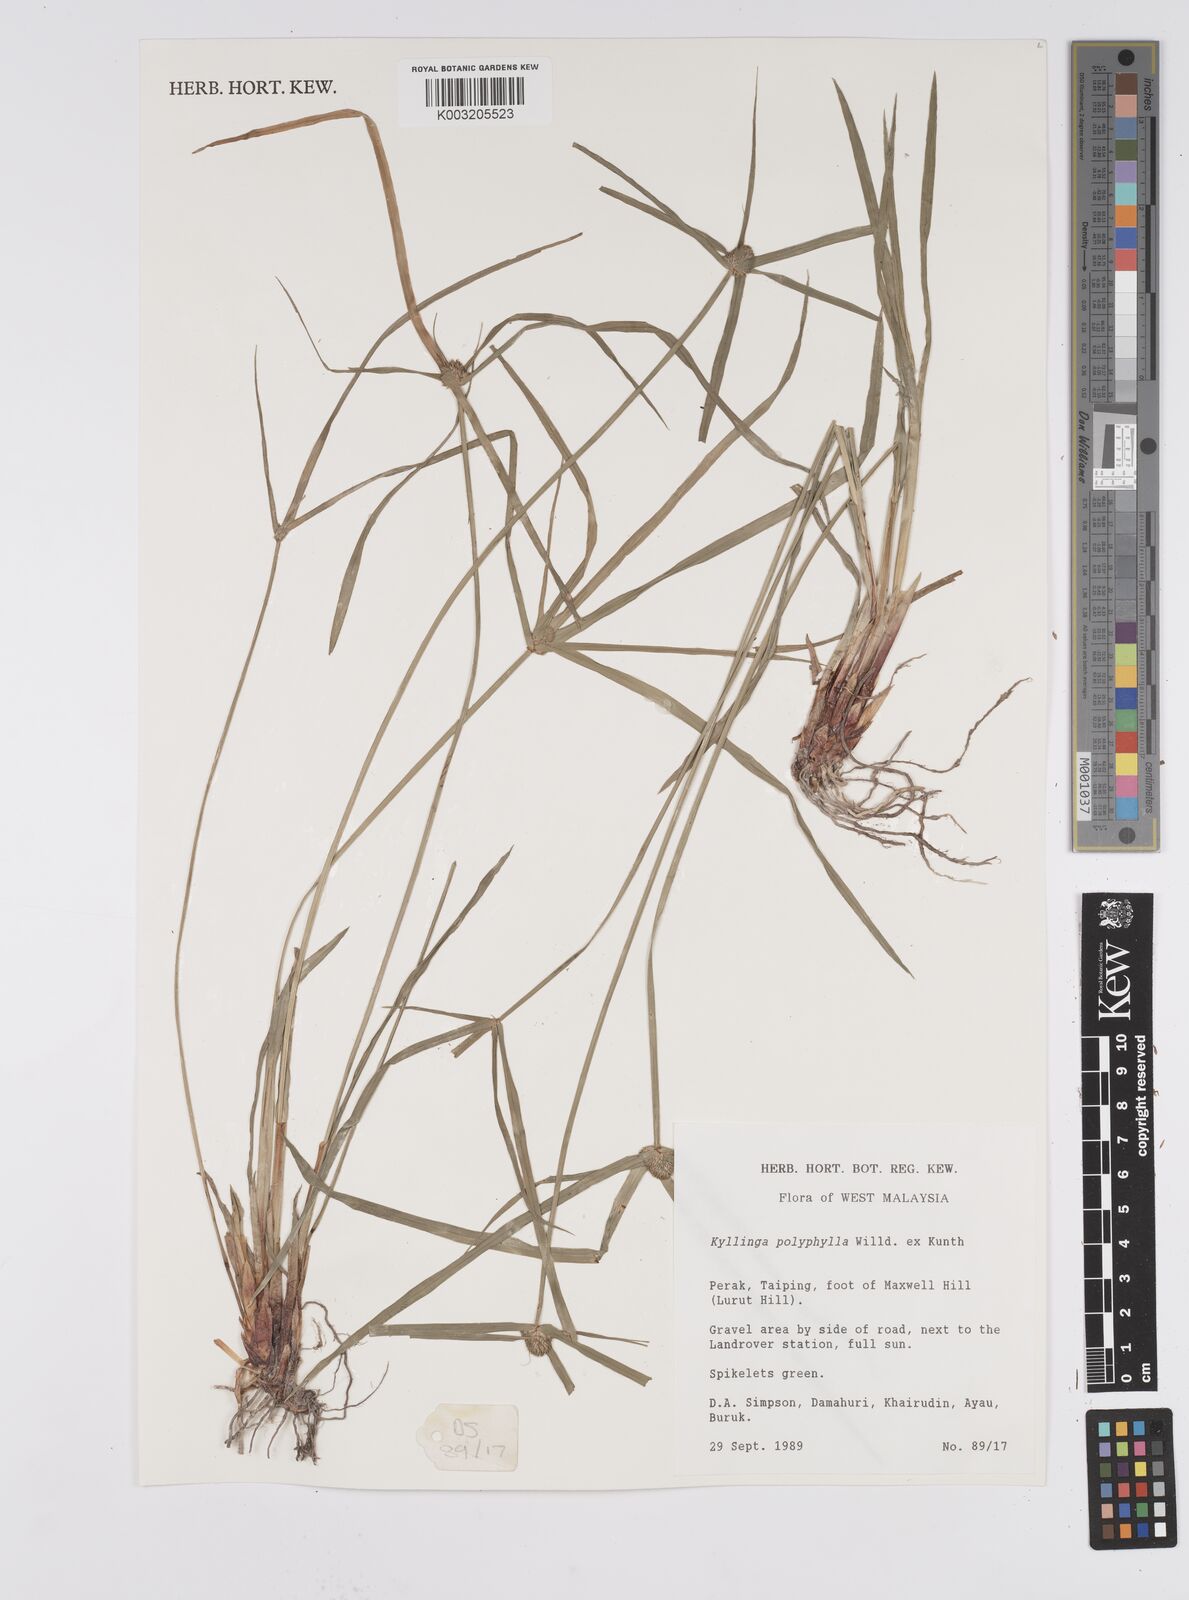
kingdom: Plantae
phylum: Tracheophyta
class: Liliopsida
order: Poales
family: Cyperaceae
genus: Cyperus
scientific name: Cyperus
